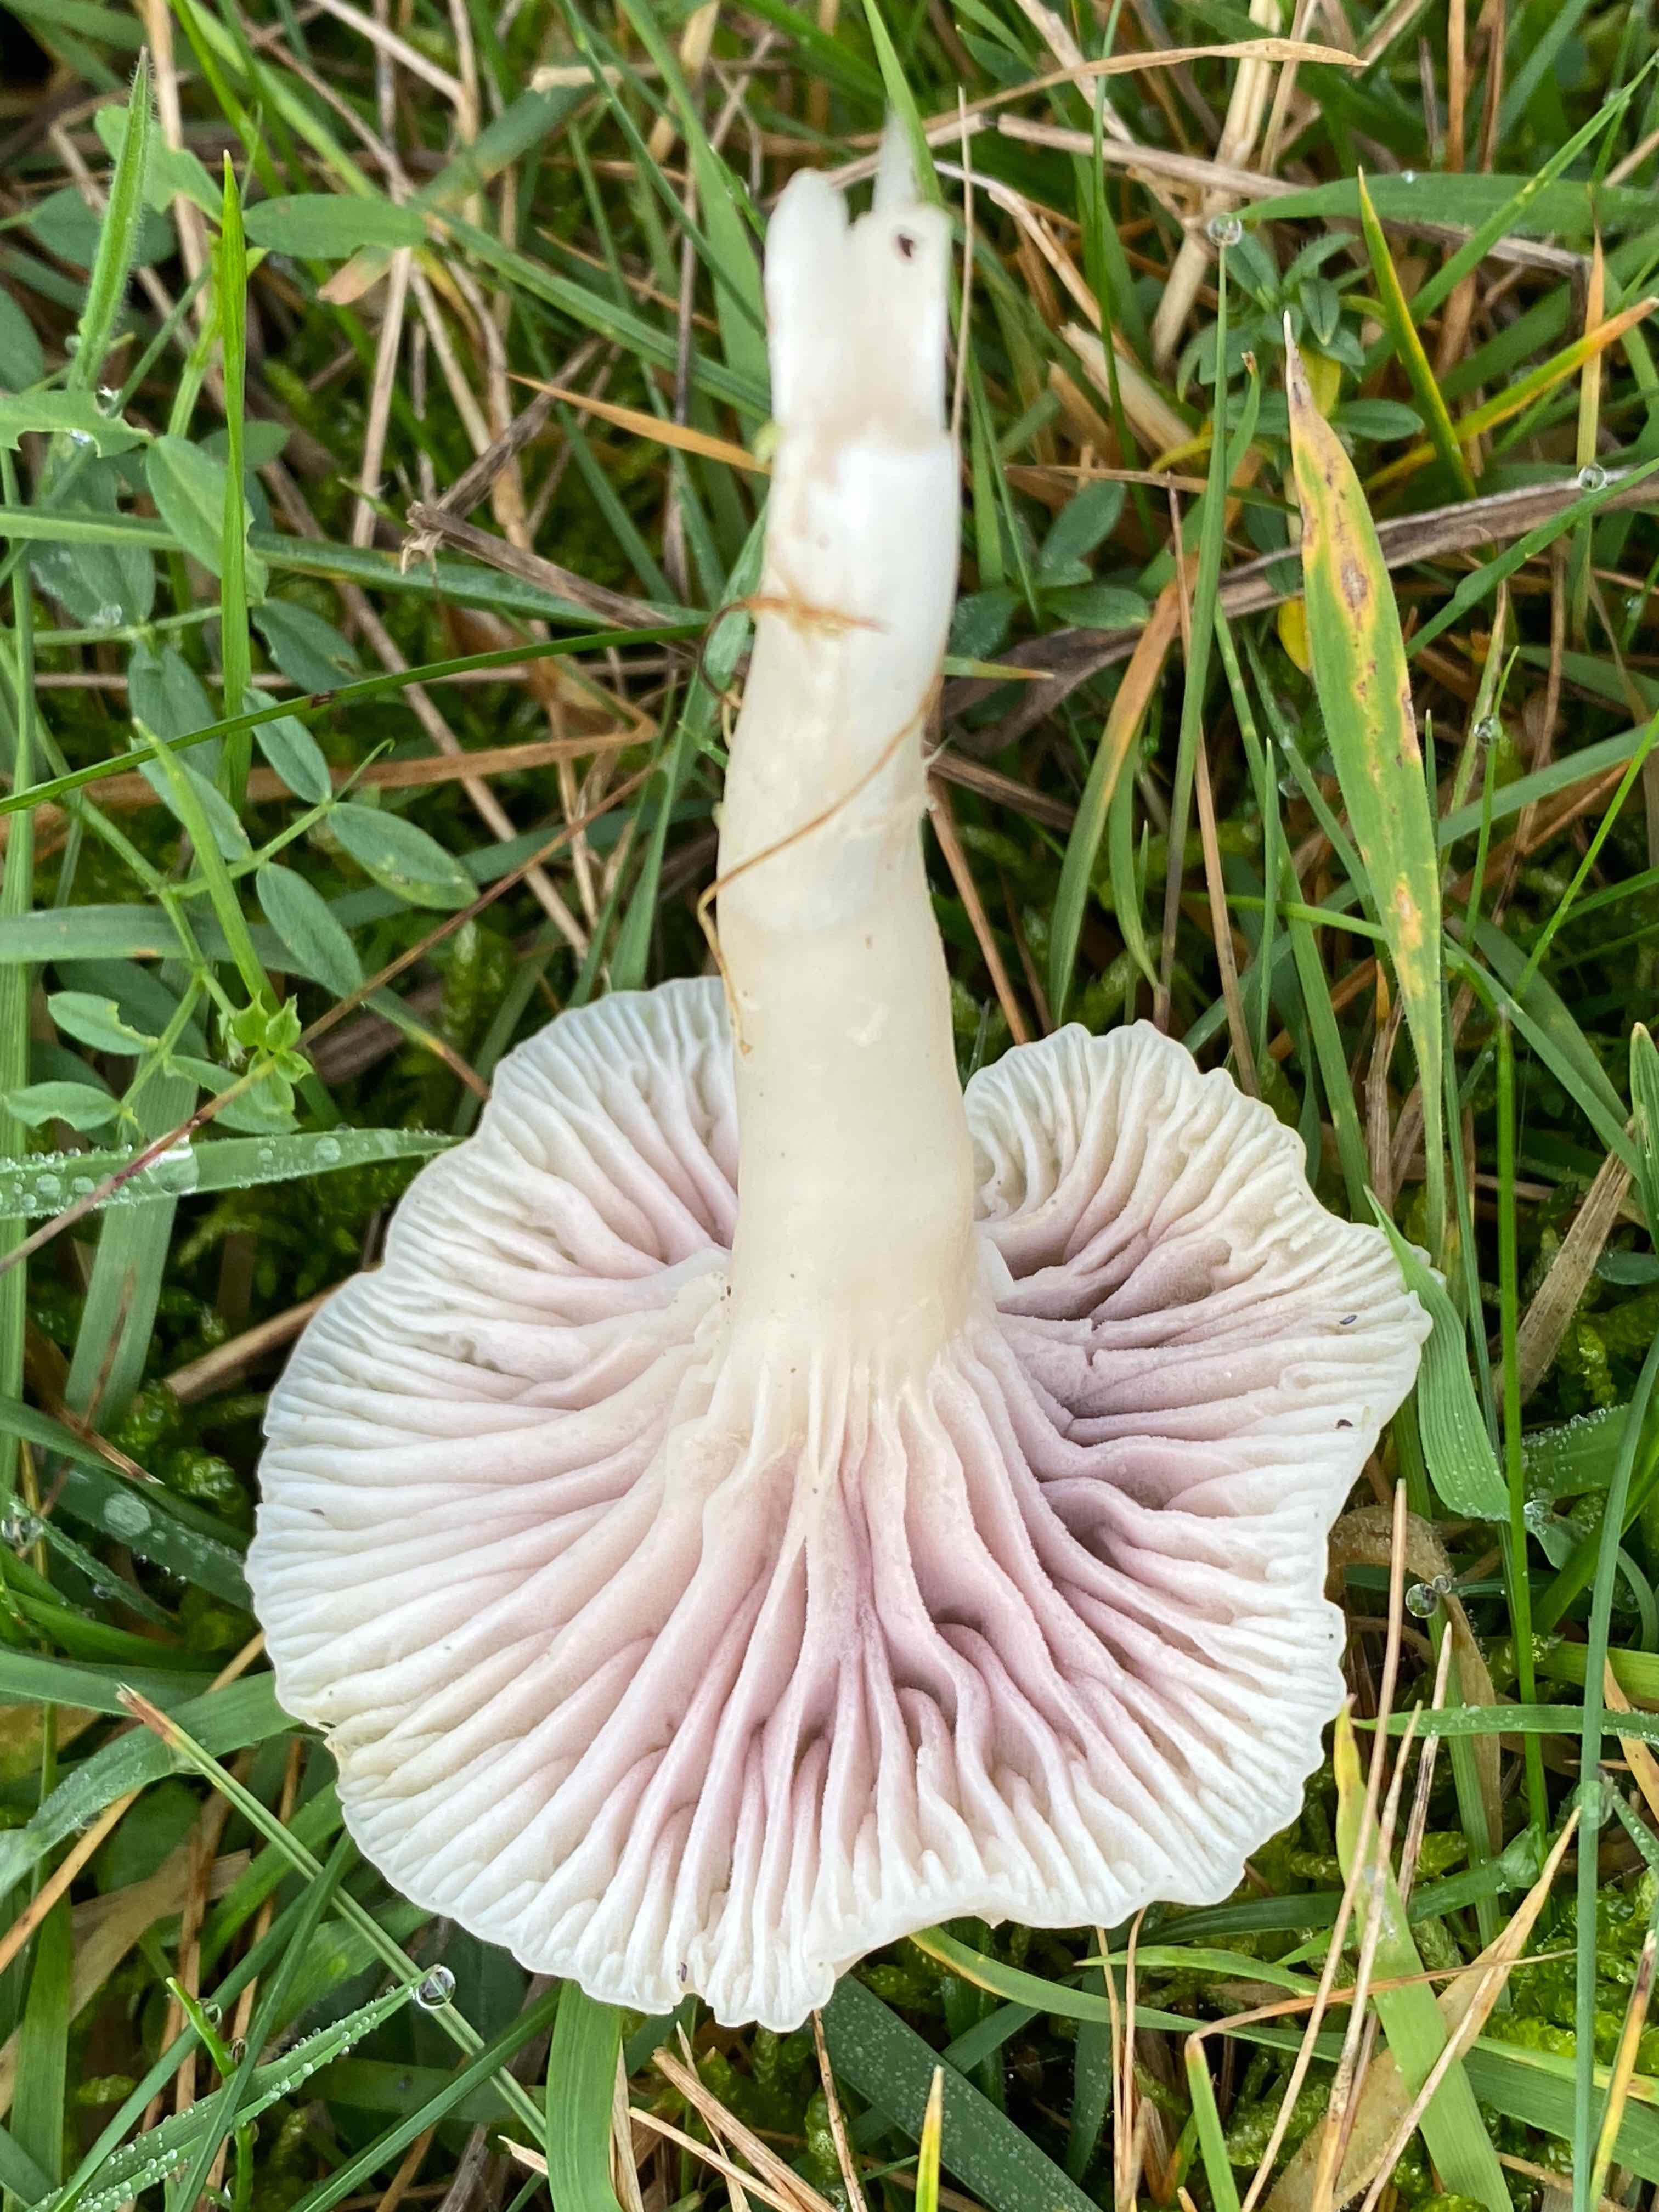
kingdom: Fungi
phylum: Ascomycota
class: Sordariomycetes
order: Hypocreales
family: Clavicipitaceae
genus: Marquandomyces
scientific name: Marquandomyces marquandii
